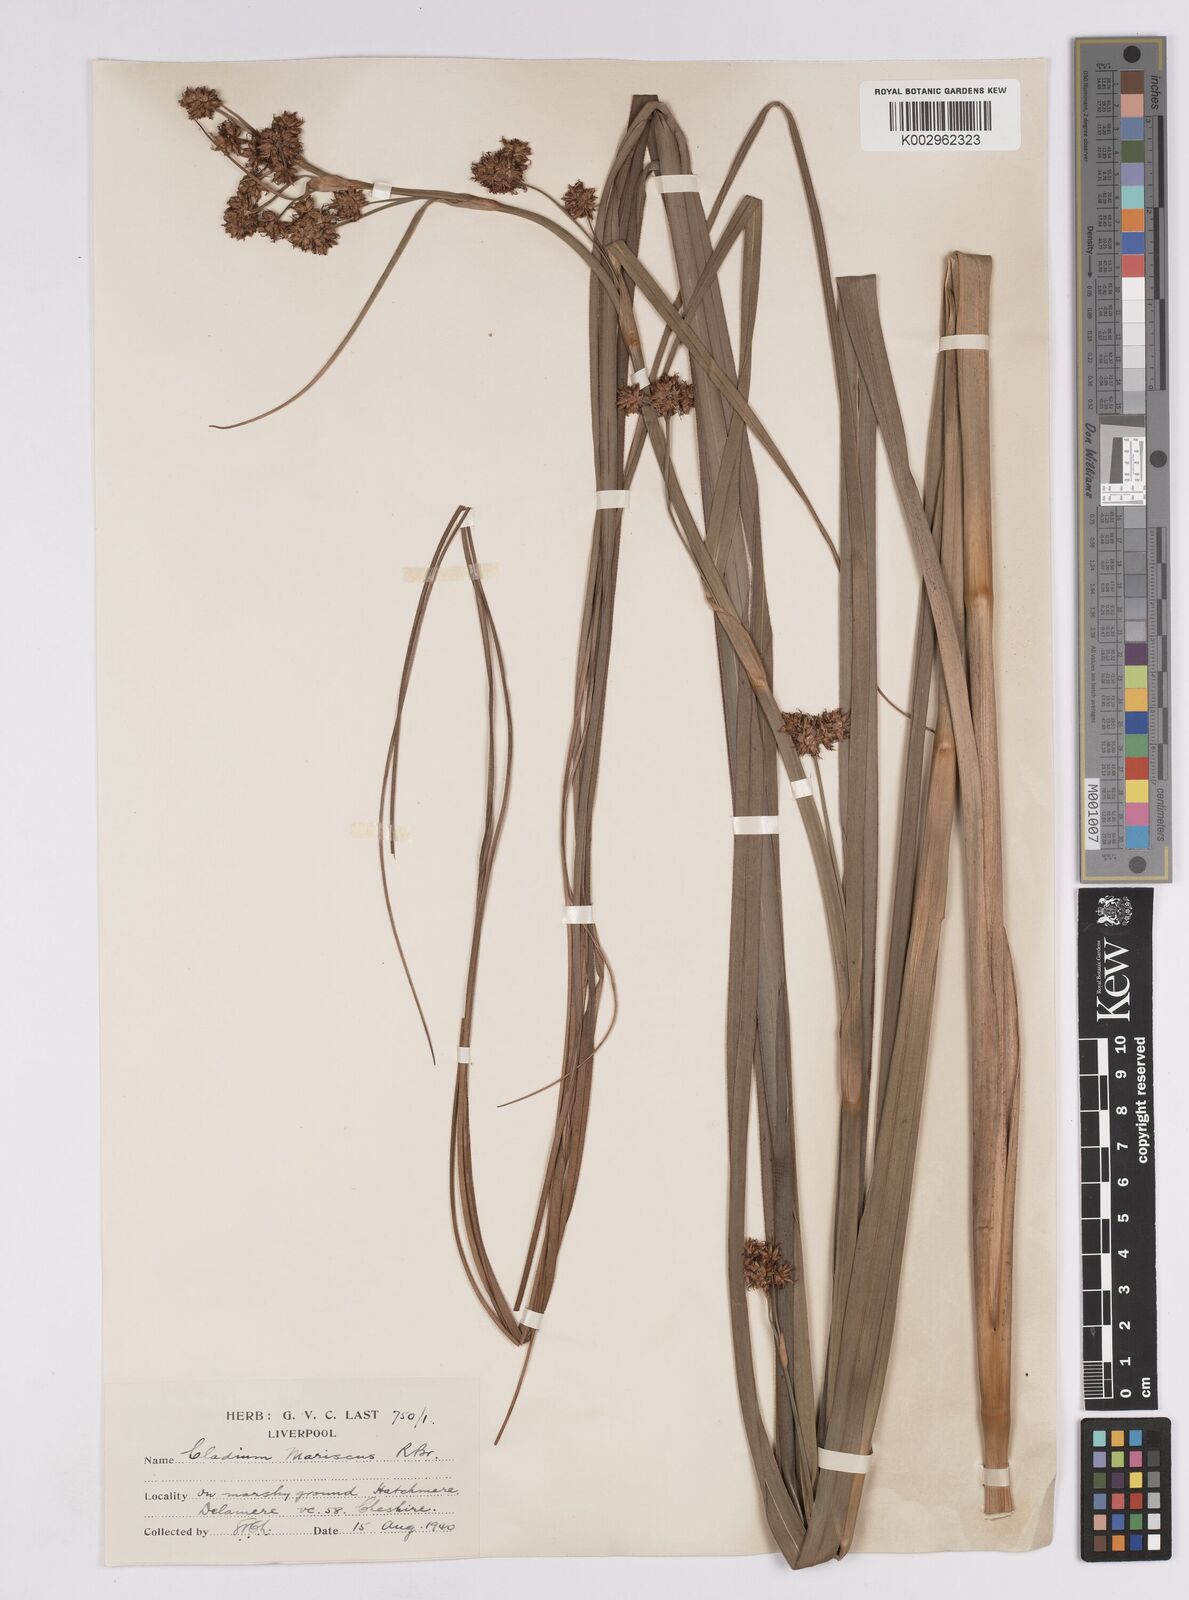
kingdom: Plantae
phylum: Tracheophyta
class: Liliopsida
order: Poales
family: Cyperaceae
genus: Cladium
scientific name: Cladium mariscus
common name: Great fen-sedge
